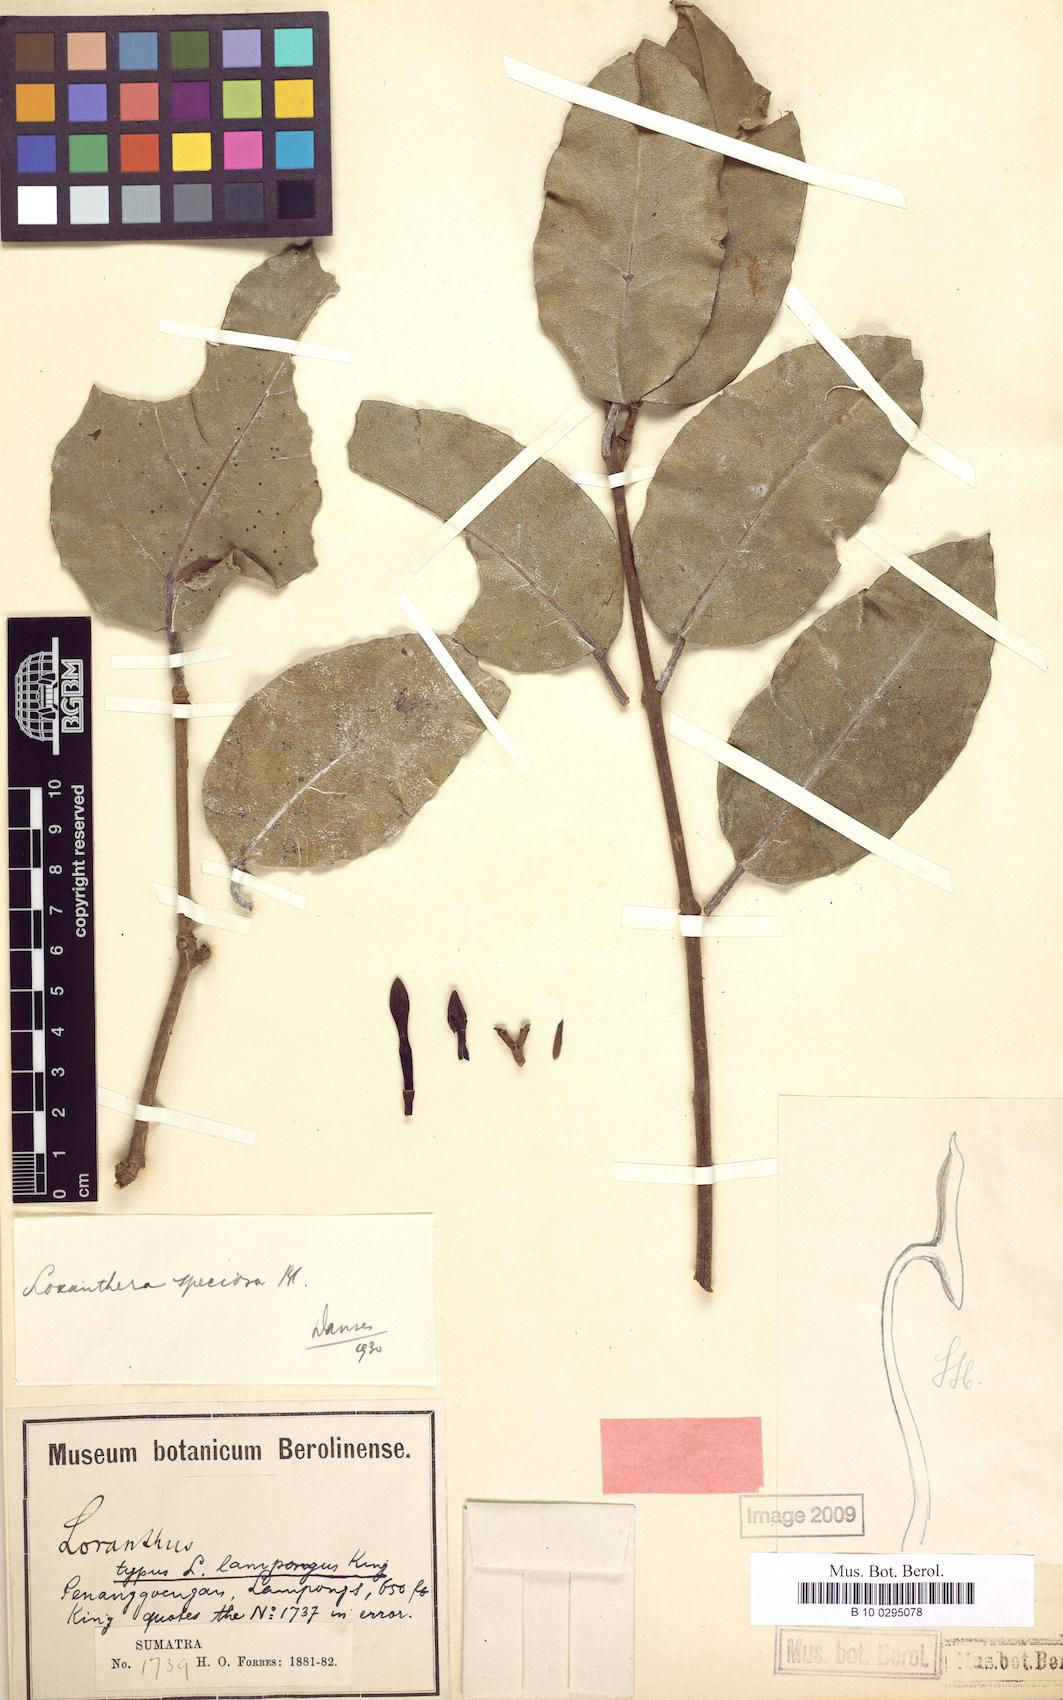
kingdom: Plantae
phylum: Tracheophyta
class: Magnoliopsida
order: Santalales
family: Loranthaceae
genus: Loxanthera
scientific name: Loxanthera speciosa
